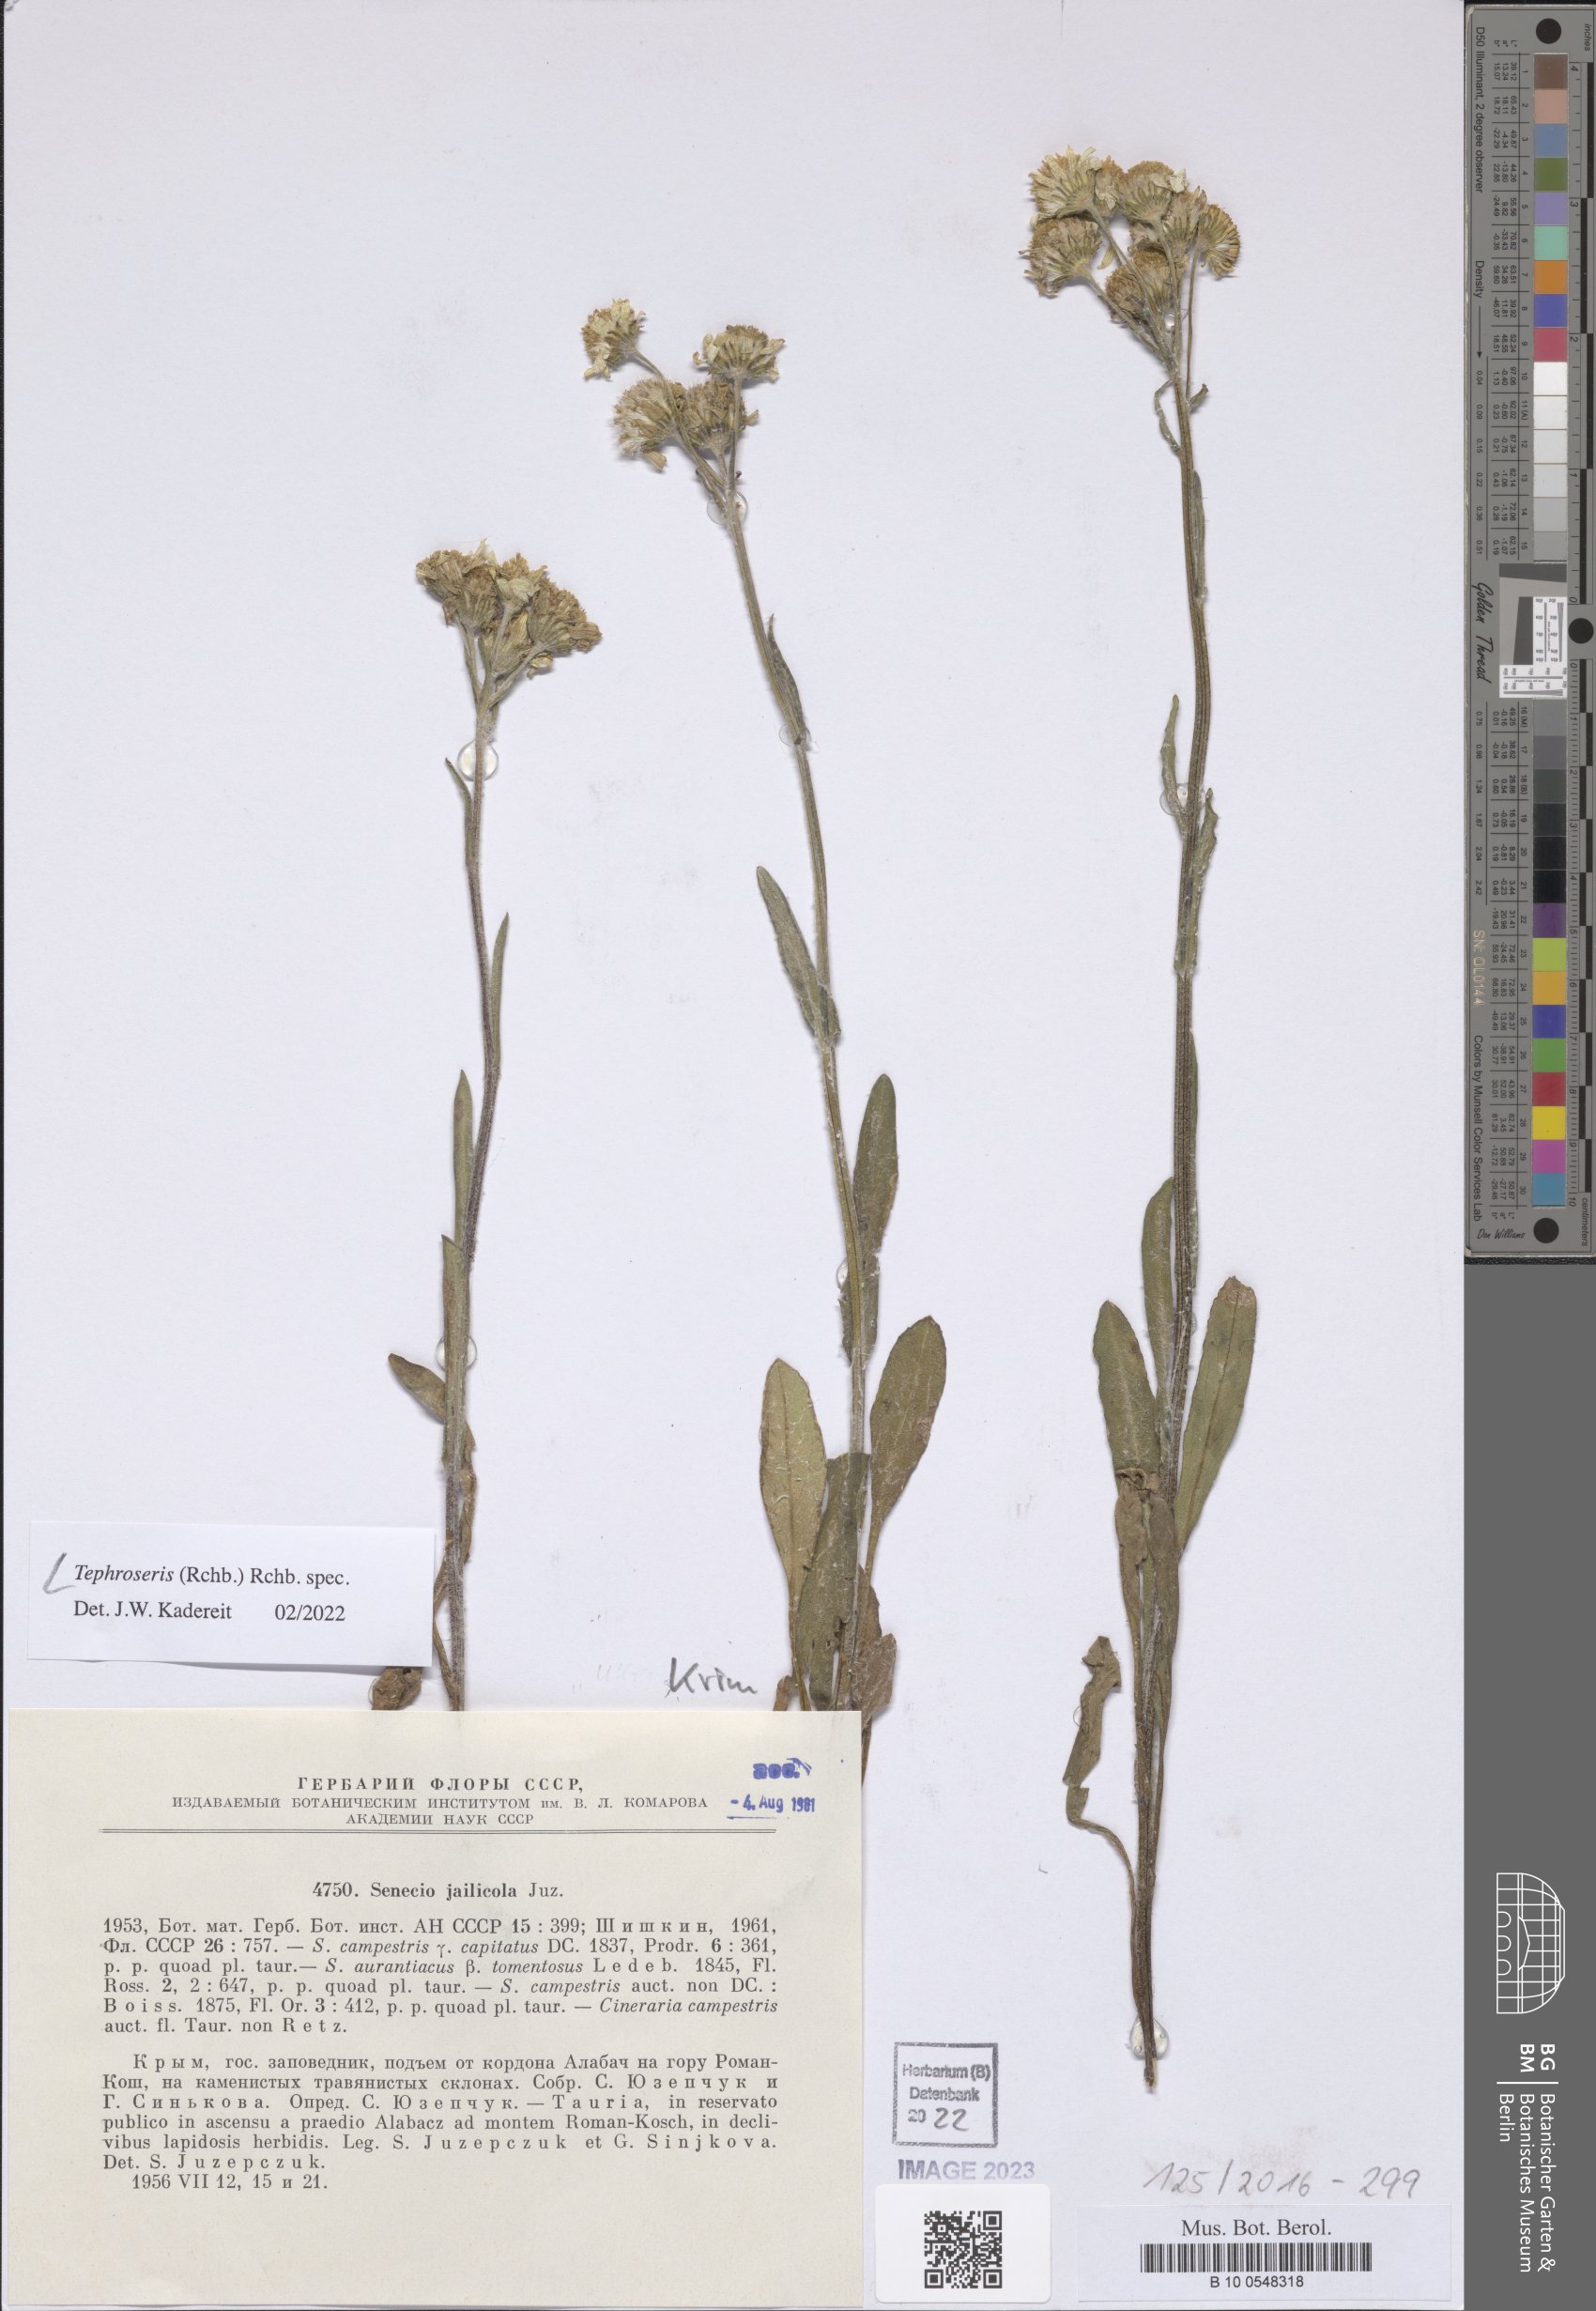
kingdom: Plantae
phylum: Tracheophyta
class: Magnoliopsida
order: Asterales
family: Asteraceae
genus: Tephroseris
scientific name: Tephroseris
